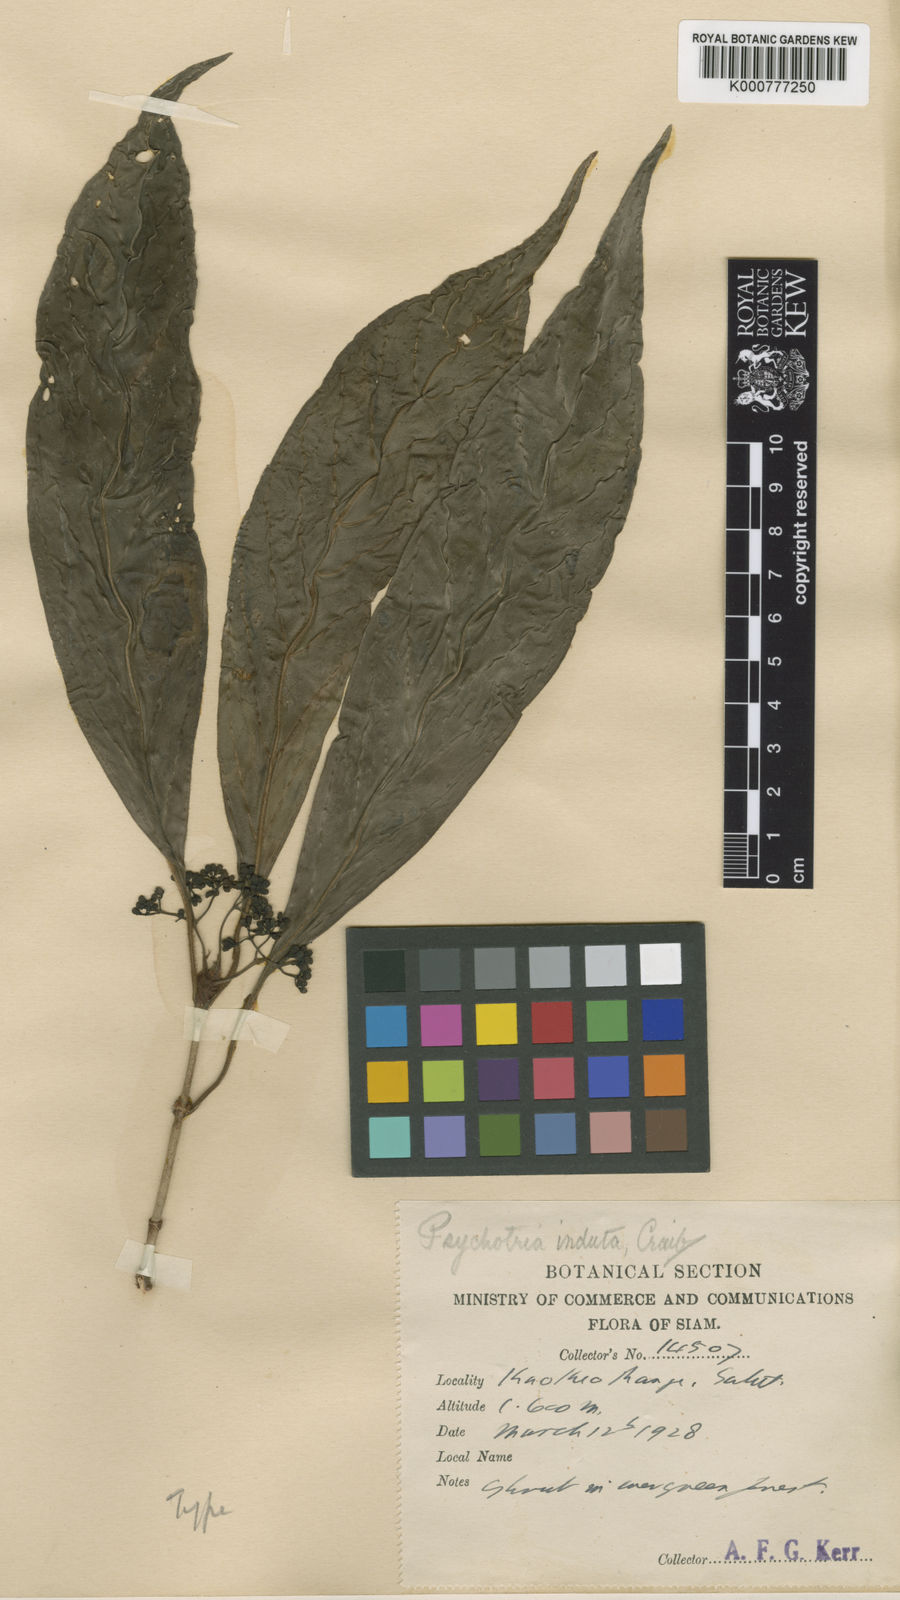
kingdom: Plantae
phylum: Tracheophyta
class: Magnoliopsida
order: Gentianales
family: Rubiaceae
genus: Psychotria
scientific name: Psychotria rudis
